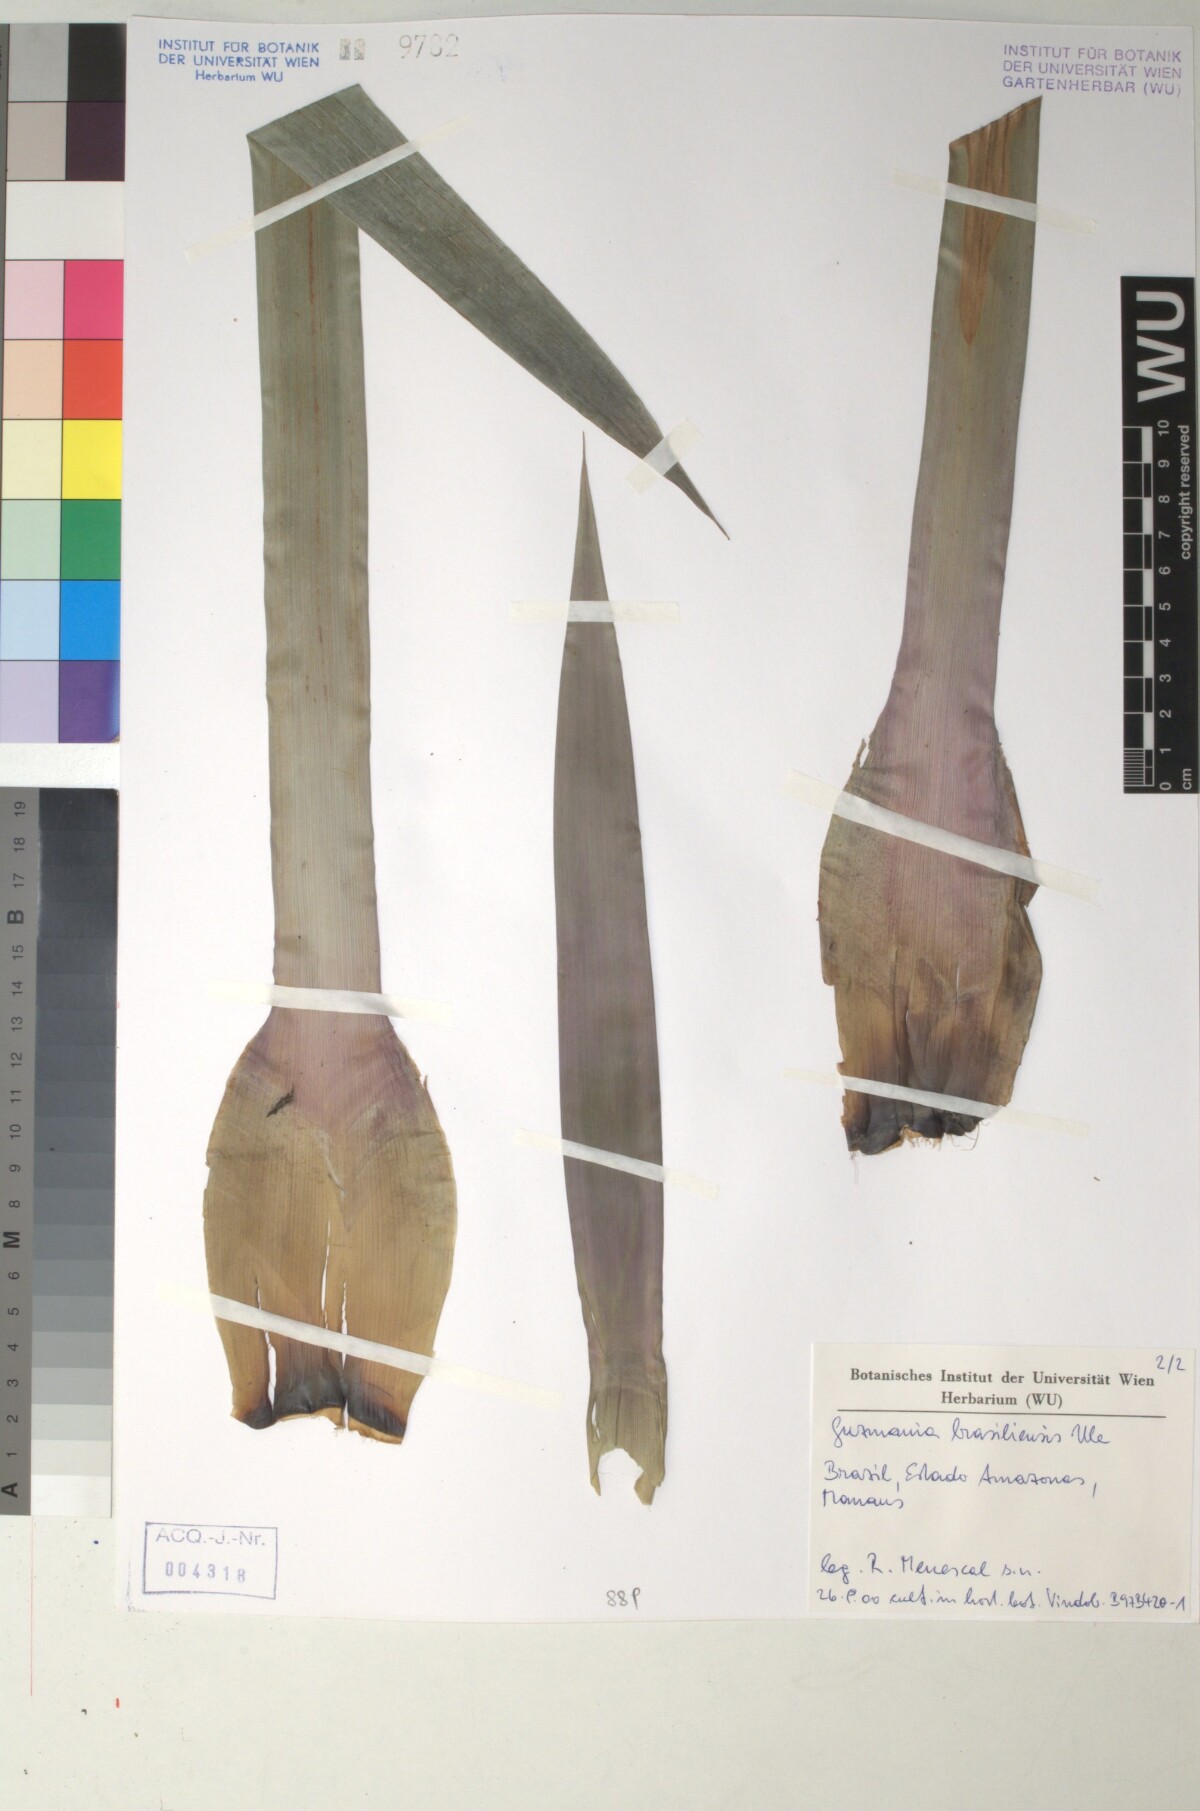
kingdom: Plantae
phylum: Tracheophyta
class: Liliopsida
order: Poales
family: Bromeliaceae
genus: Guzmania
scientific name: Guzmania brasiliensis
